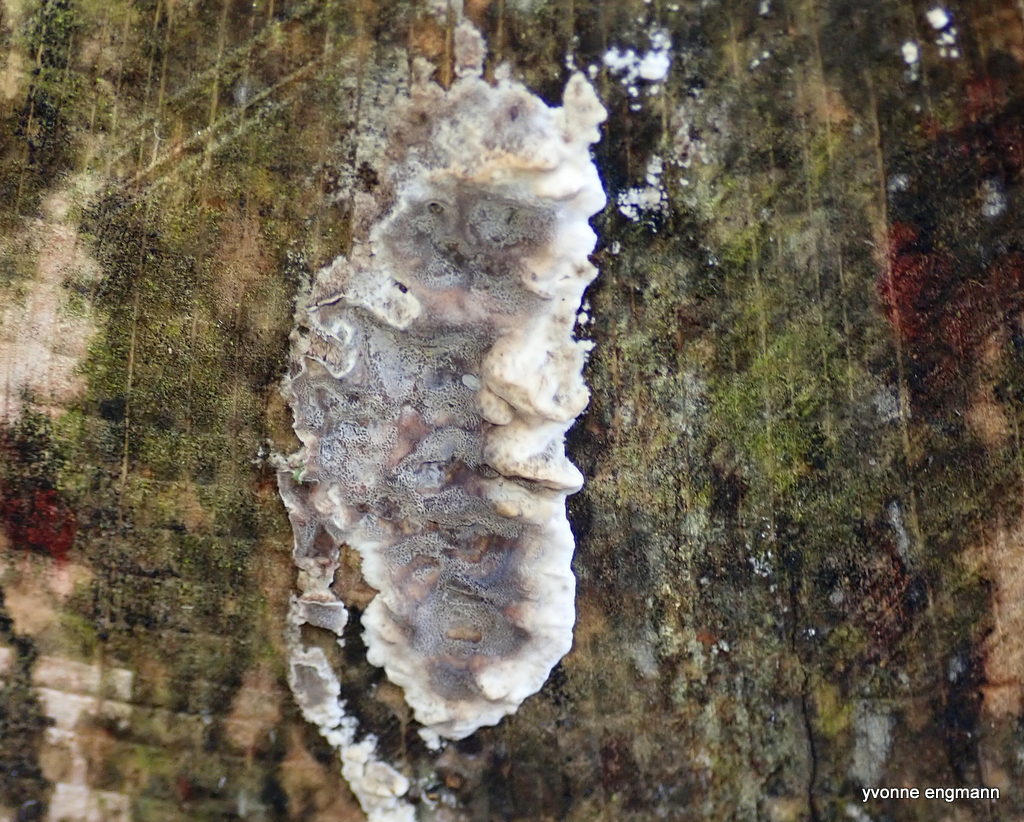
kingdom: Fungi
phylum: Basidiomycota
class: Agaricomycetes
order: Polyporales
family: Phanerochaetaceae
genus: Bjerkandera
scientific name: Bjerkandera adusta
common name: sveden sodporesvamp
